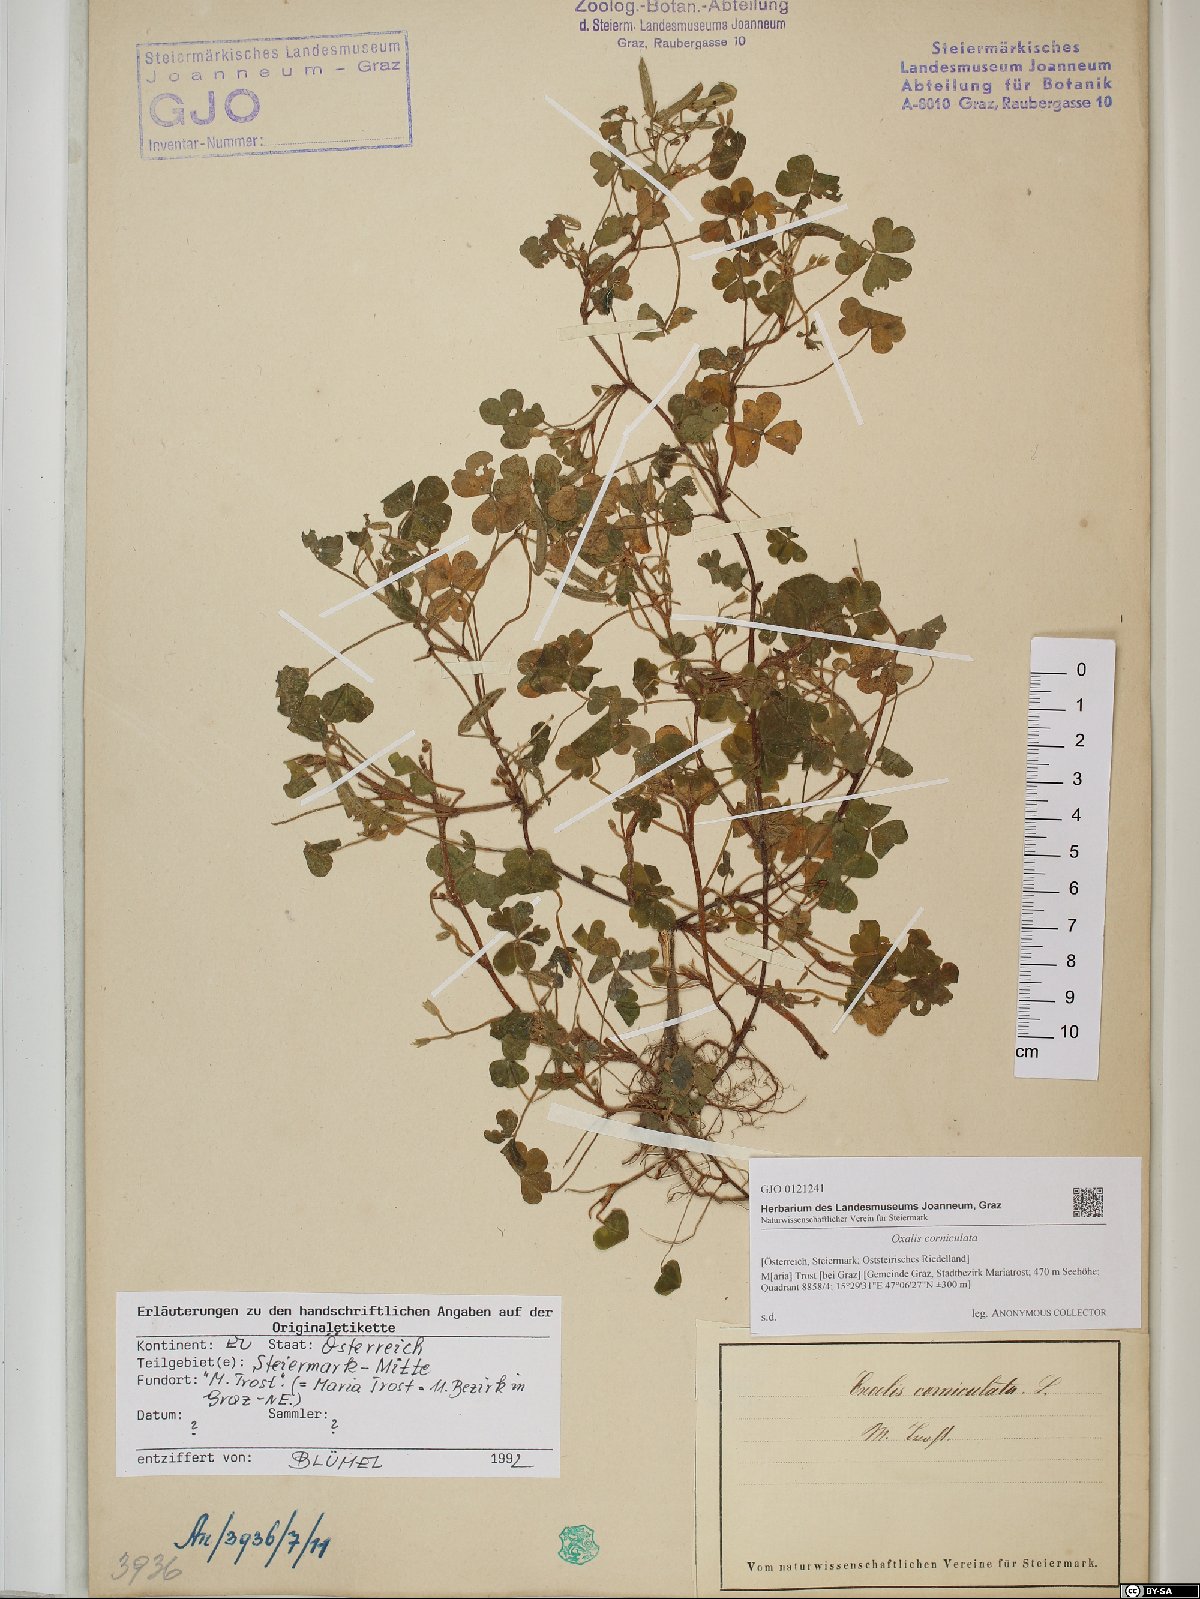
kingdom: Plantae
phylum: Tracheophyta
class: Magnoliopsida
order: Oxalidales
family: Oxalidaceae
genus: Oxalis
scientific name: Oxalis corniculata
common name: Procumbent yellow-sorrel
